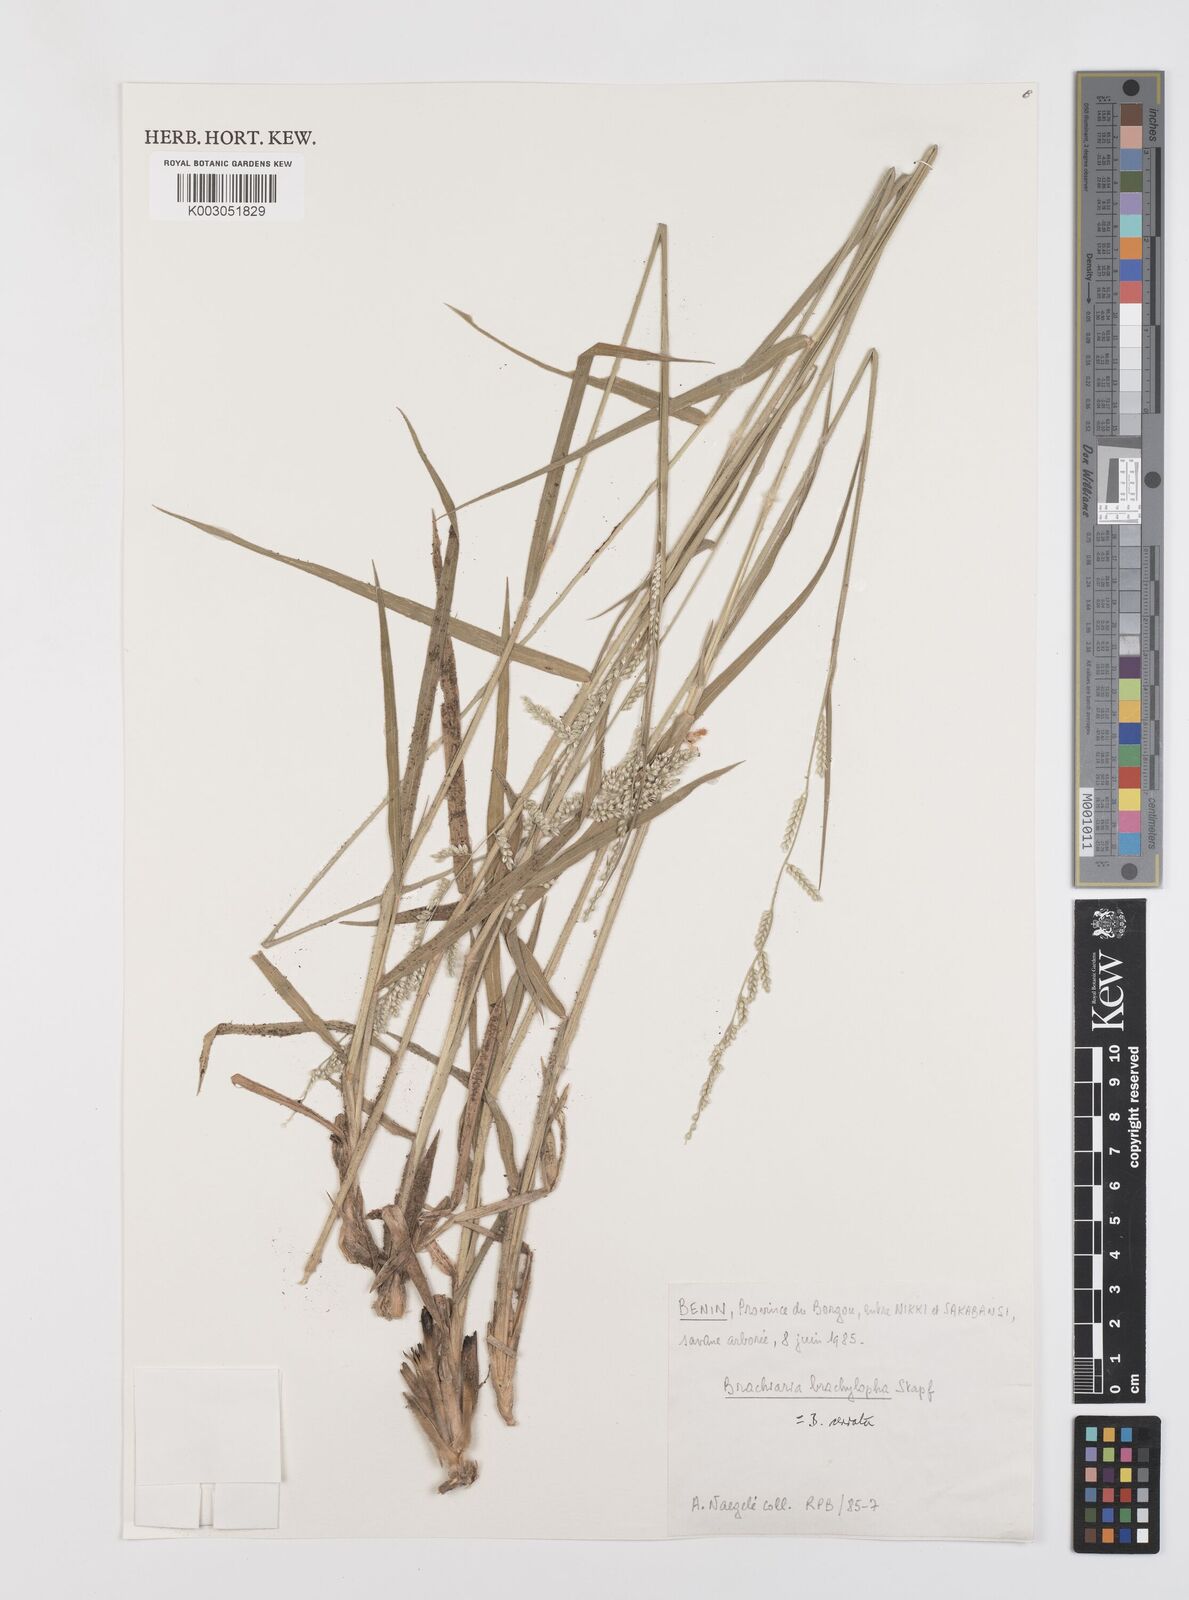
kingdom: Plantae
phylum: Tracheophyta
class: Liliopsida
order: Poales
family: Poaceae
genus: Urochloa
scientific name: Urochloa serrata
